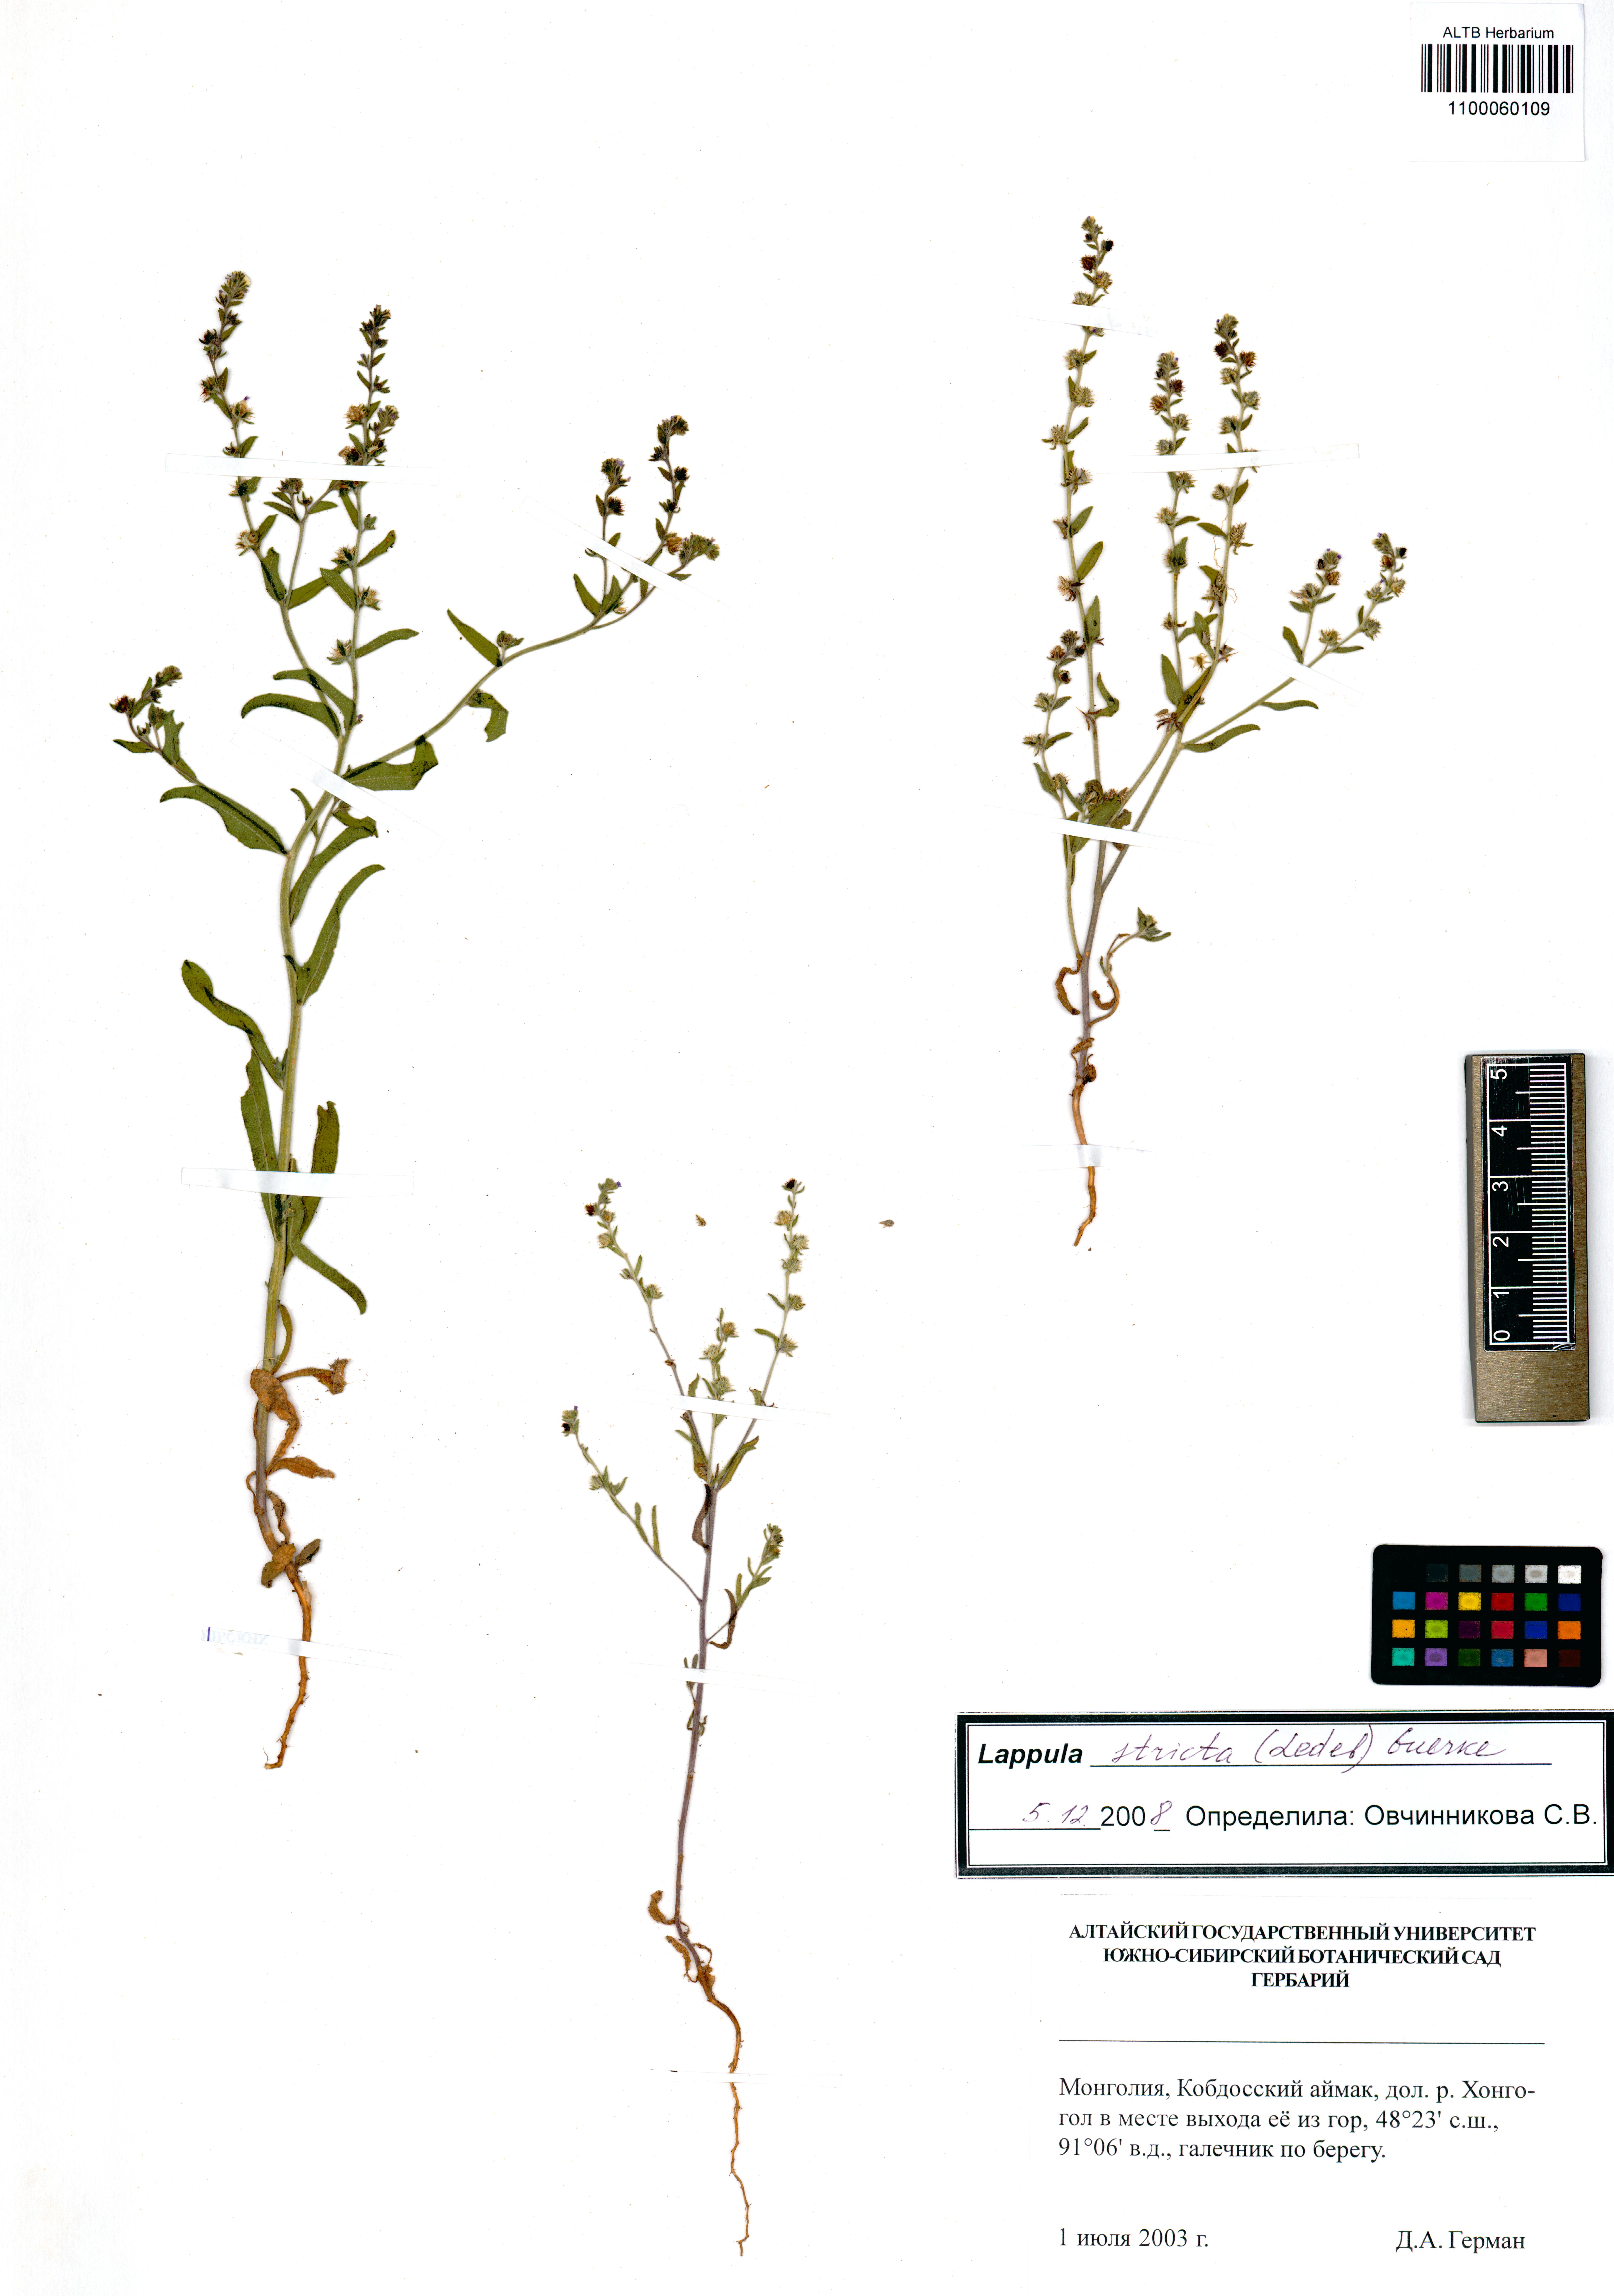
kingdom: Plantae
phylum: Tracheophyta
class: Magnoliopsida
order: Boraginales
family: Boraginaceae
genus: Lappula
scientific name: Lappula stricta
